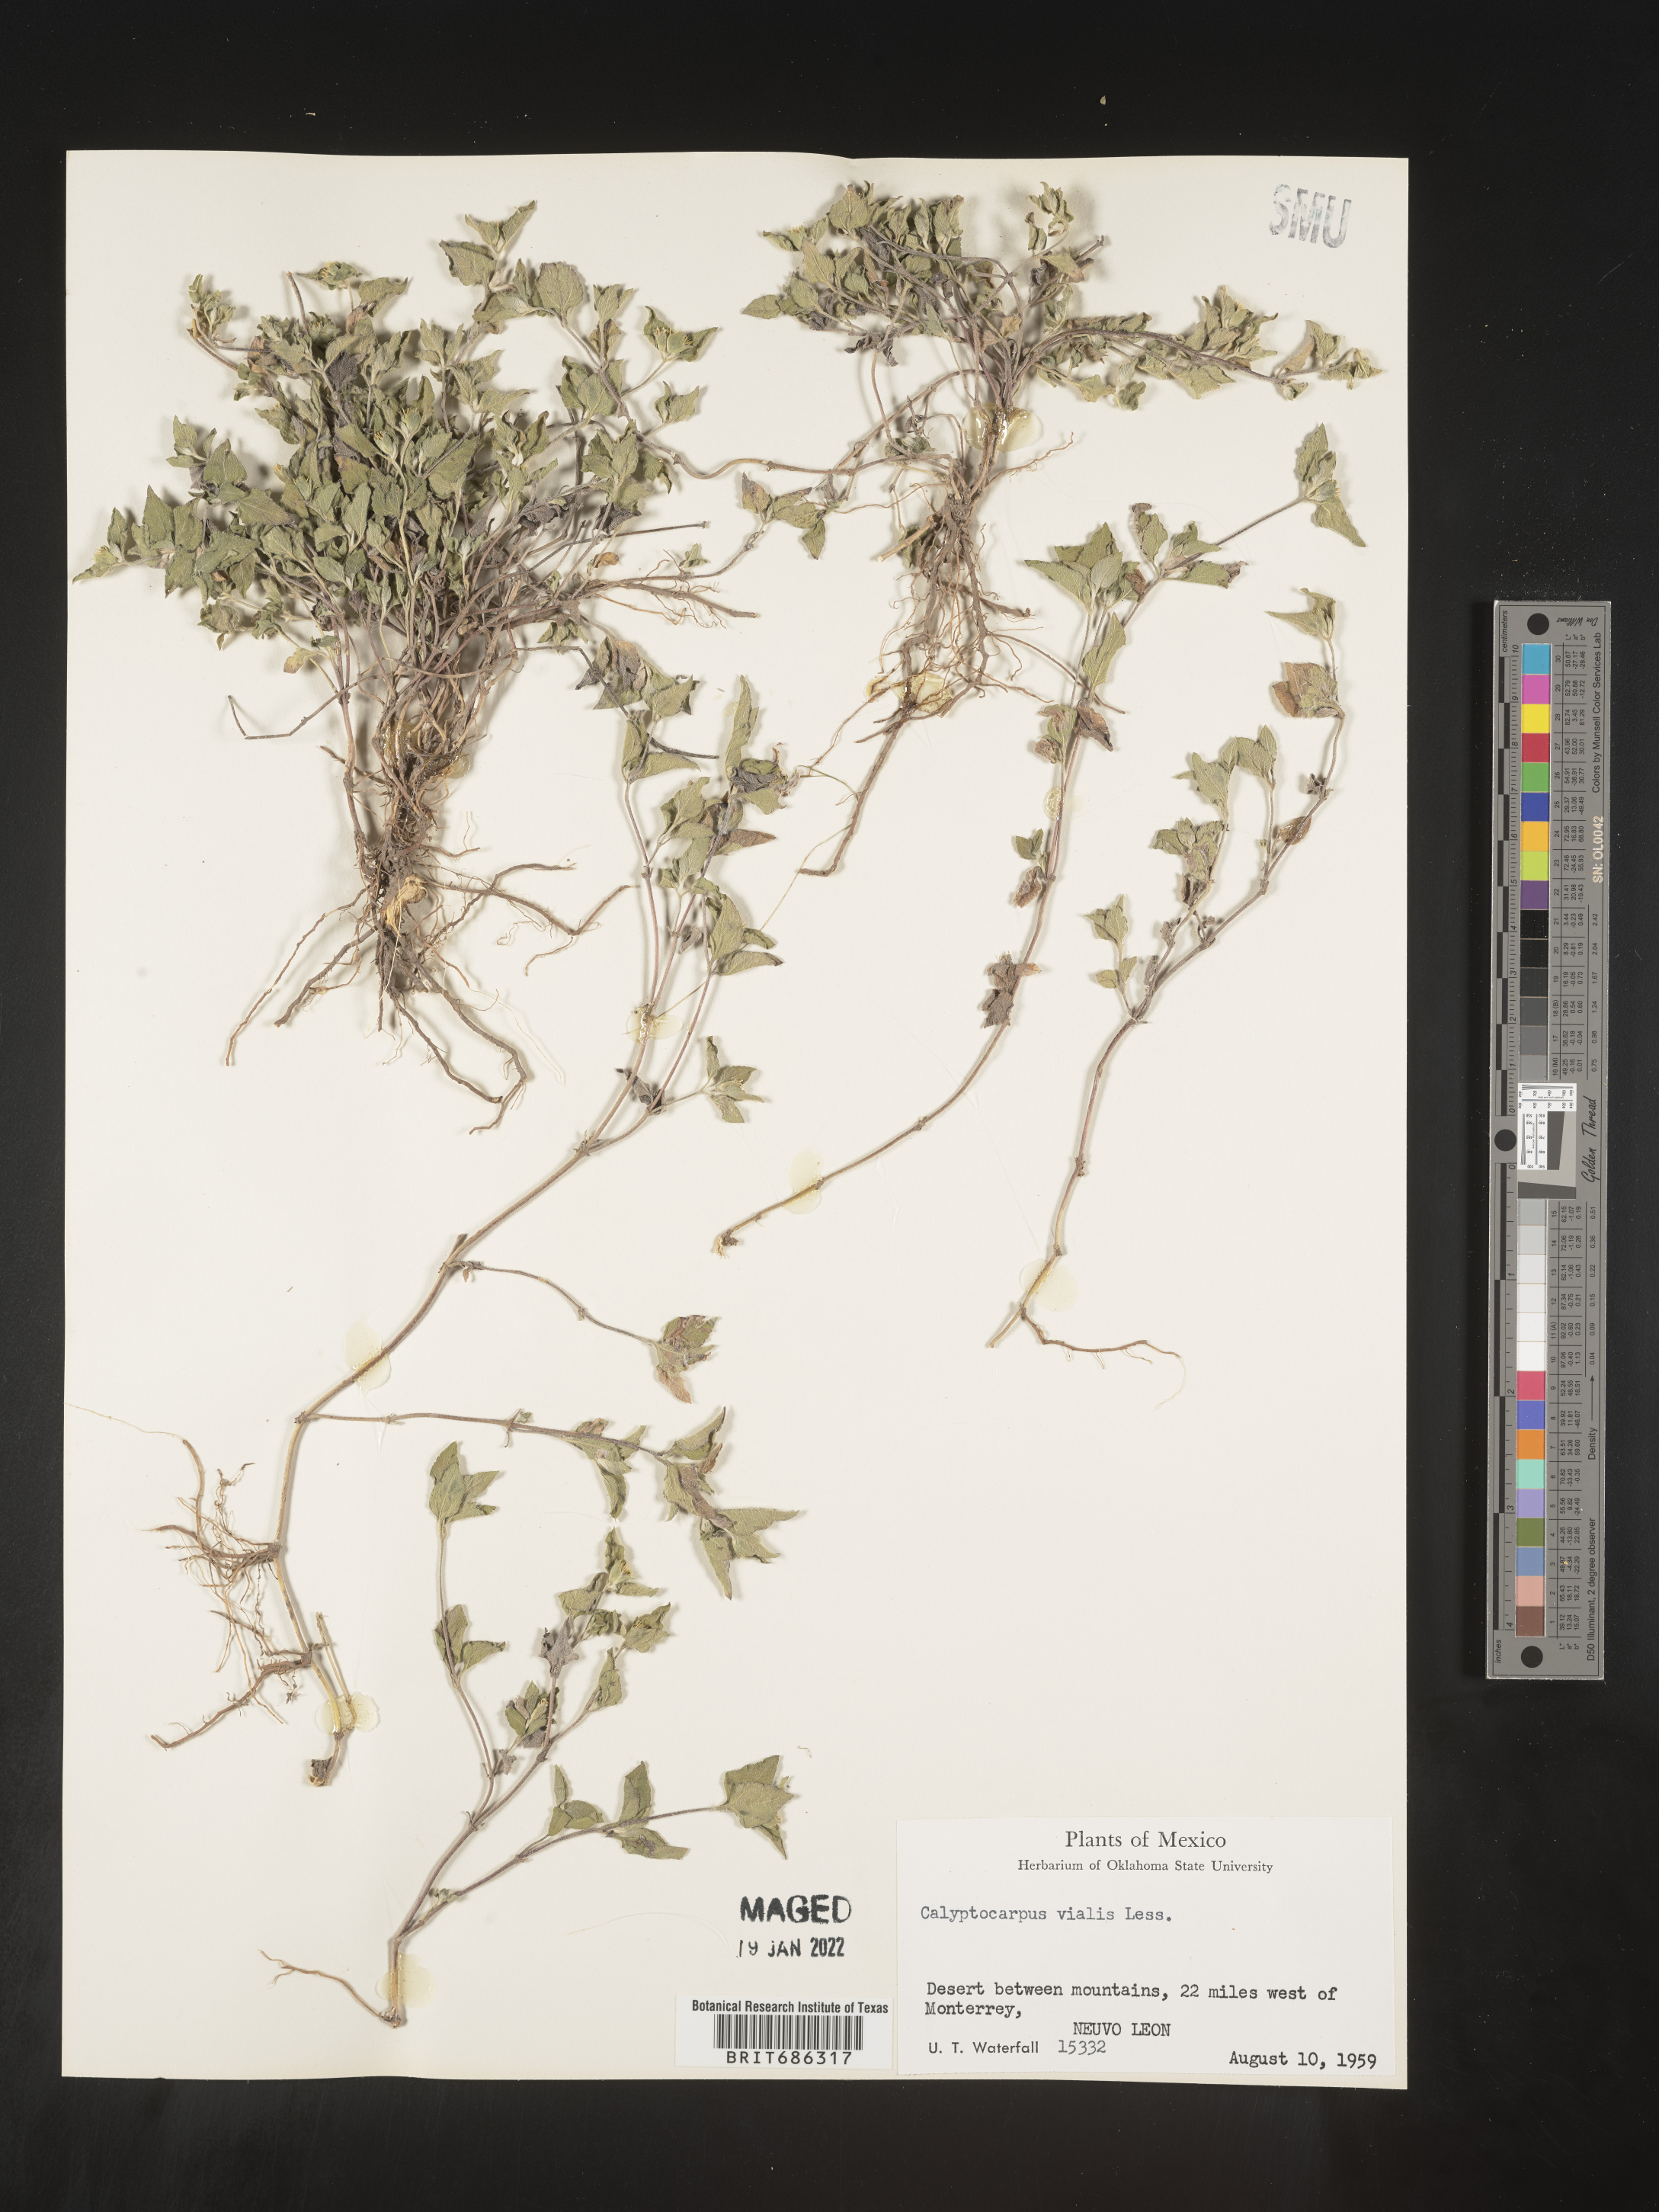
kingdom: Plantae
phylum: Tracheophyta
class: Magnoliopsida
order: Asterales
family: Asteraceae
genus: Calyptocarpus
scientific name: Calyptocarpus
